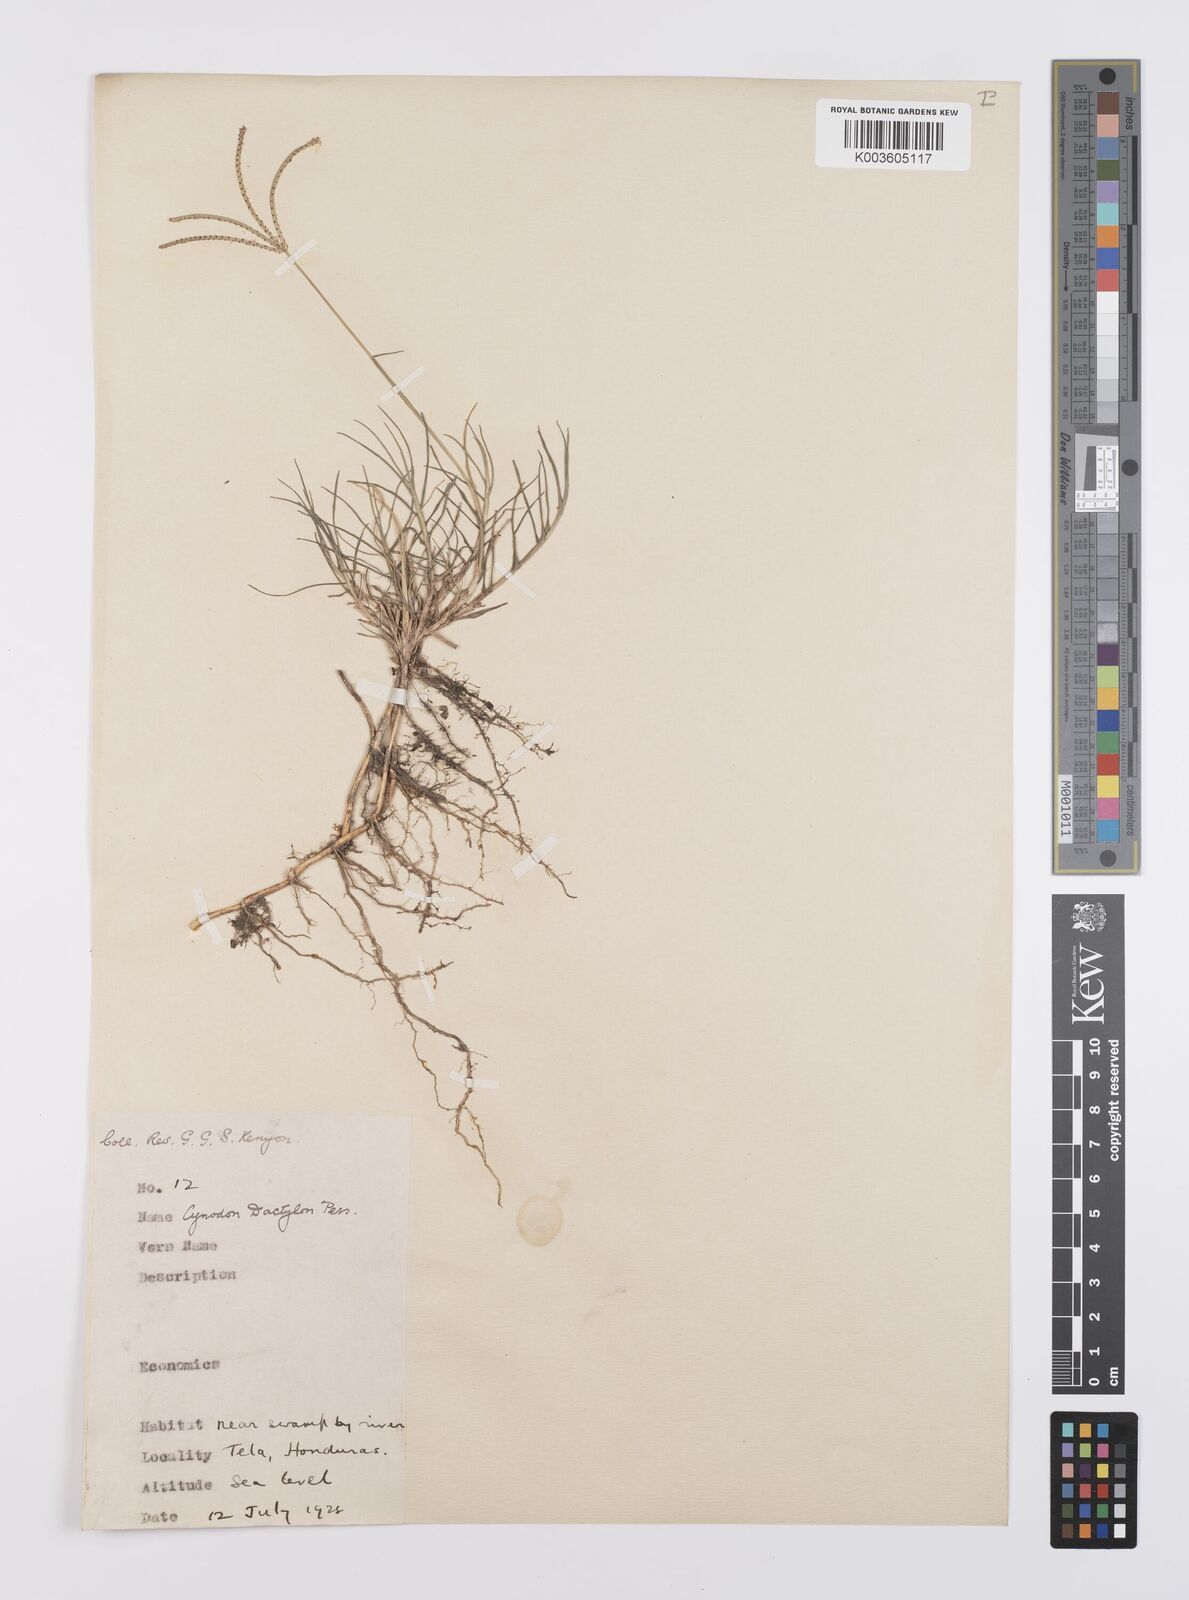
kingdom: Plantae
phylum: Tracheophyta
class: Liliopsida
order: Poales
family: Poaceae
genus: Cynodon
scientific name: Cynodon dactylon
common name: Bermuda grass
